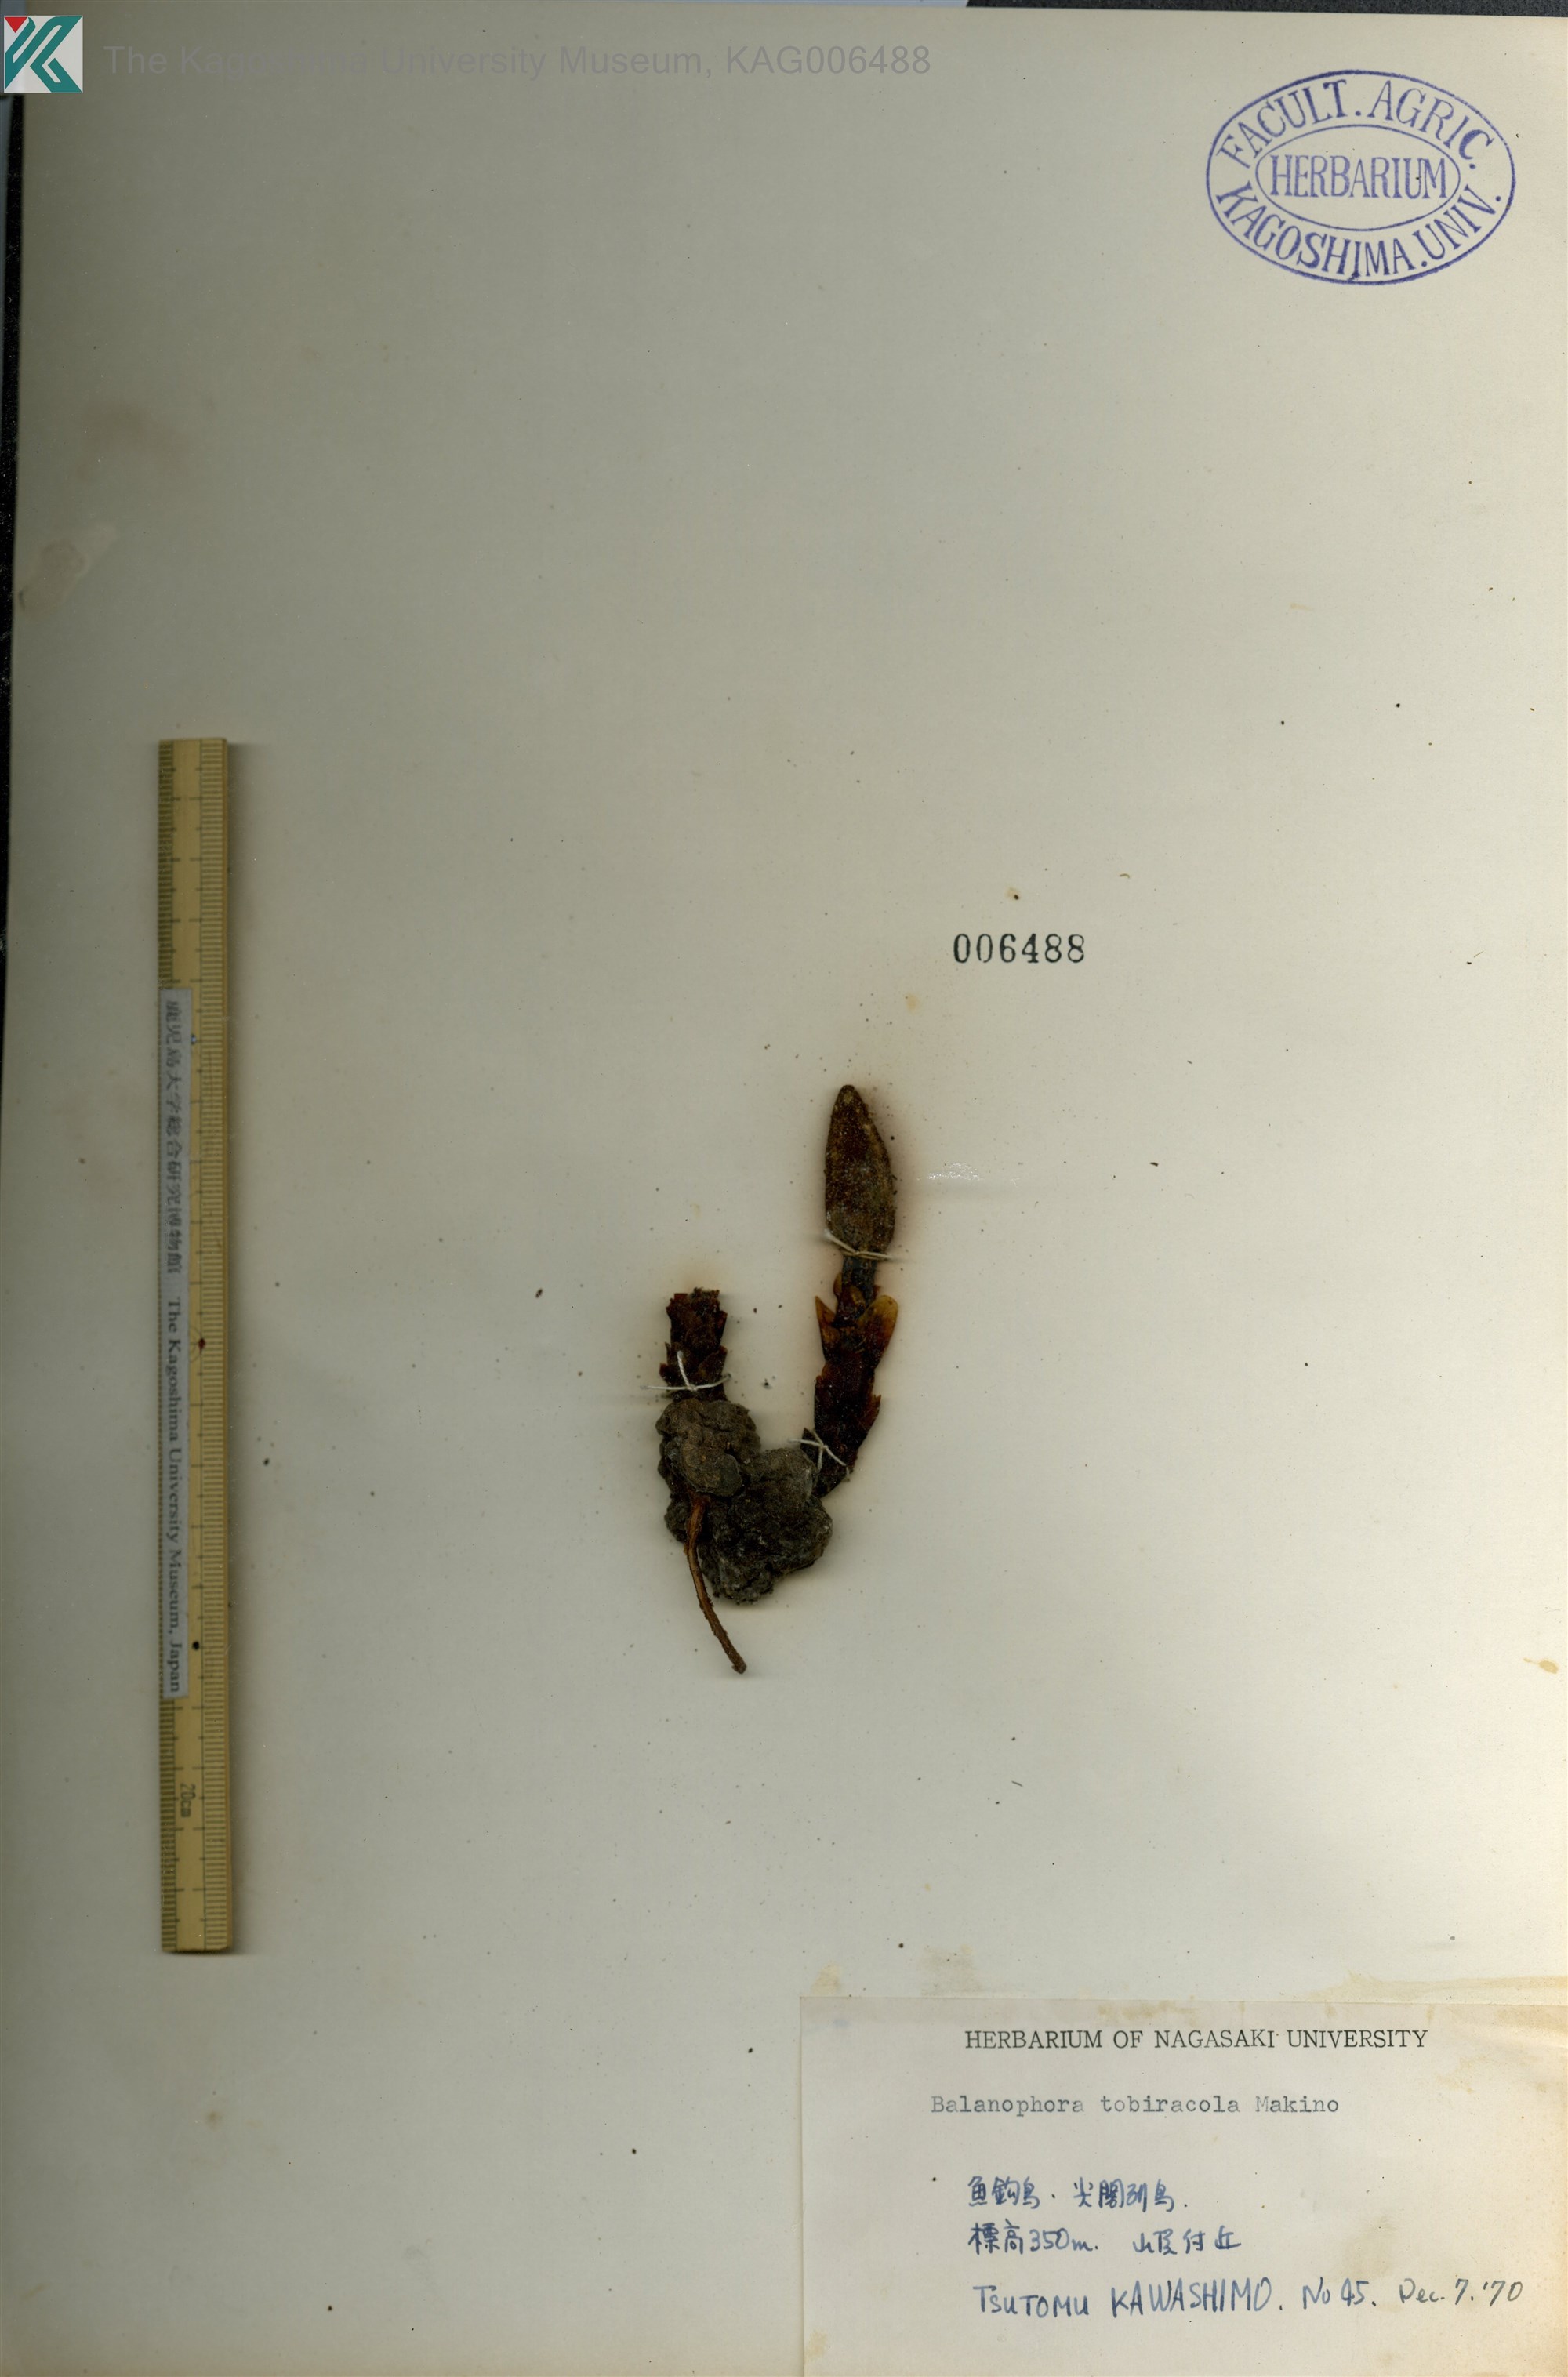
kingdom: Plantae
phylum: Tracheophyta
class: Magnoliopsida
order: Santalales
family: Balanophoraceae
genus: Balanophora
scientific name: Balanophora tobiracola
